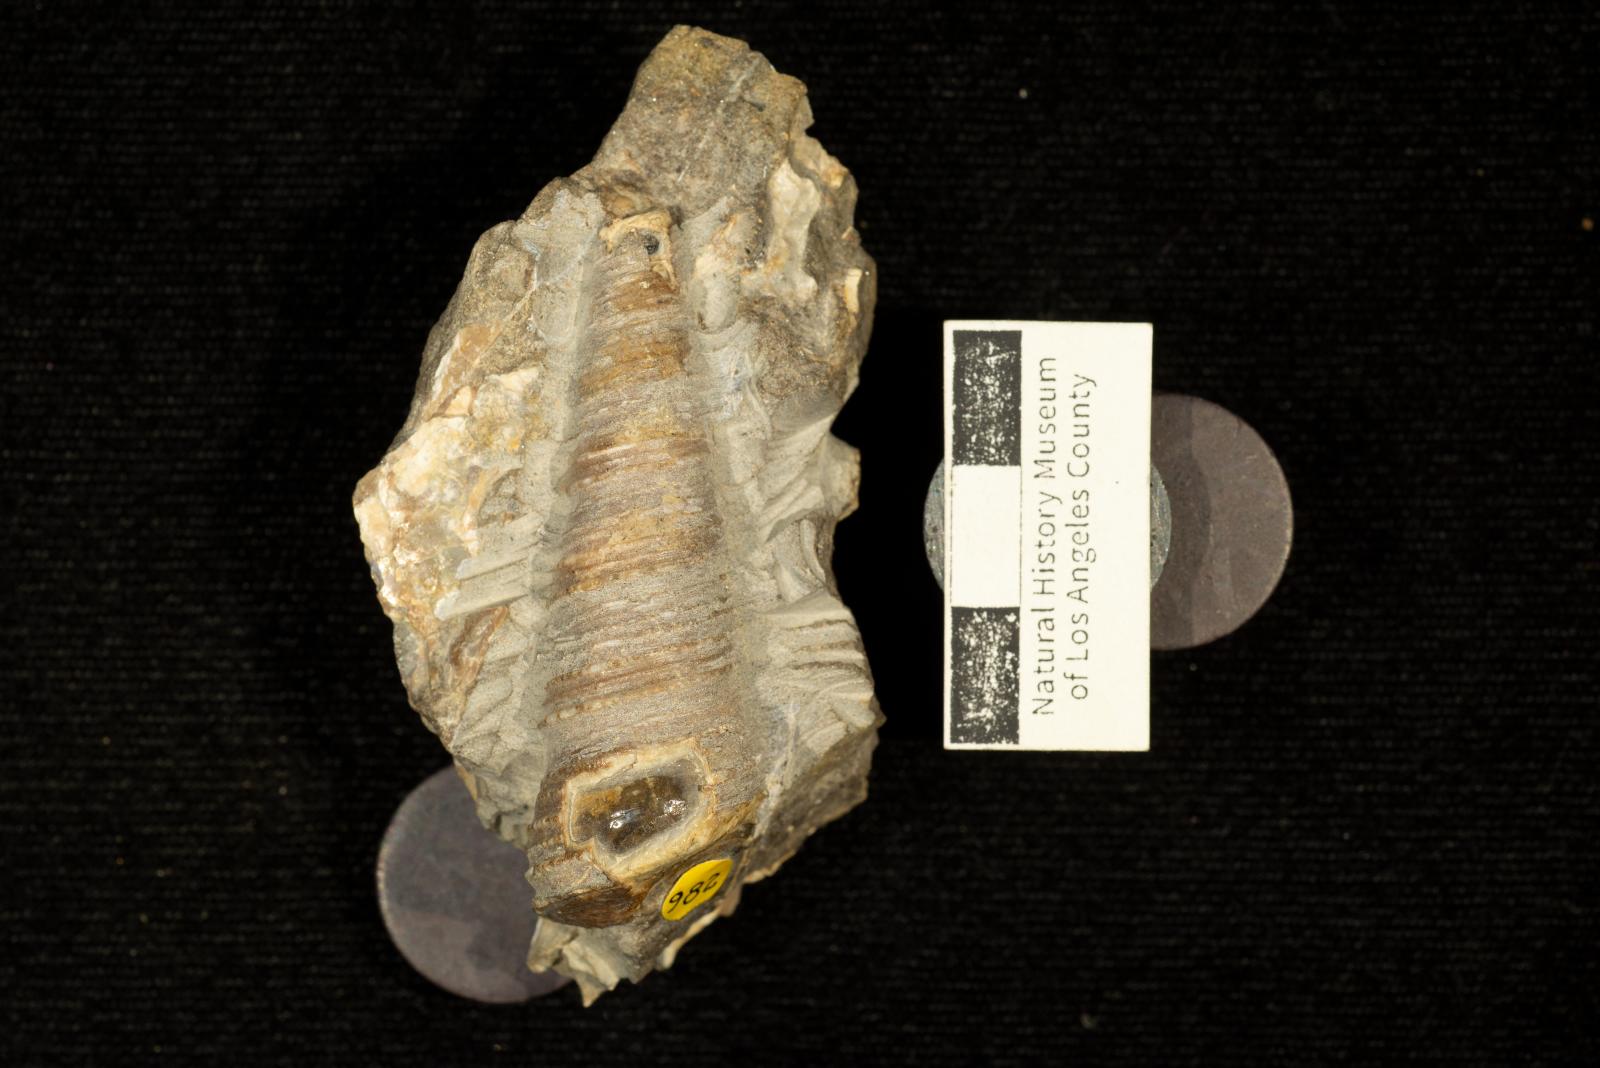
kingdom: Animalia
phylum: Mollusca
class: Gastropoda
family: Turritellidae
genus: Turritella
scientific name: Turritella chicoensis
